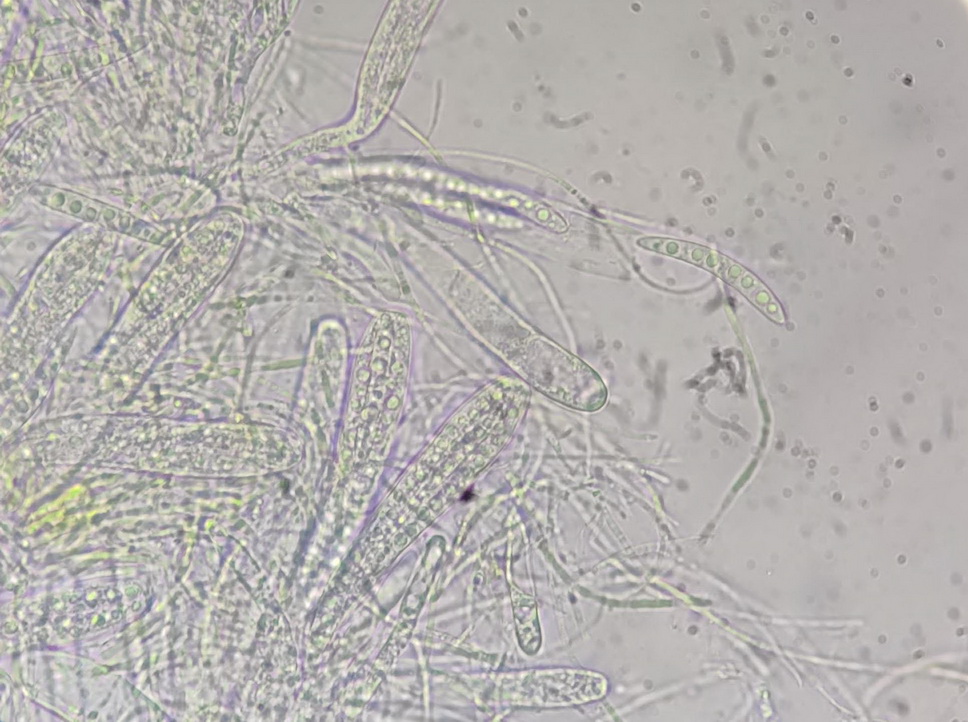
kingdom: Fungi
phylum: Ascomycota
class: Leotiomycetes
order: Helotiales
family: Helotiaceae
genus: Durella
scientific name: Durella connivens
